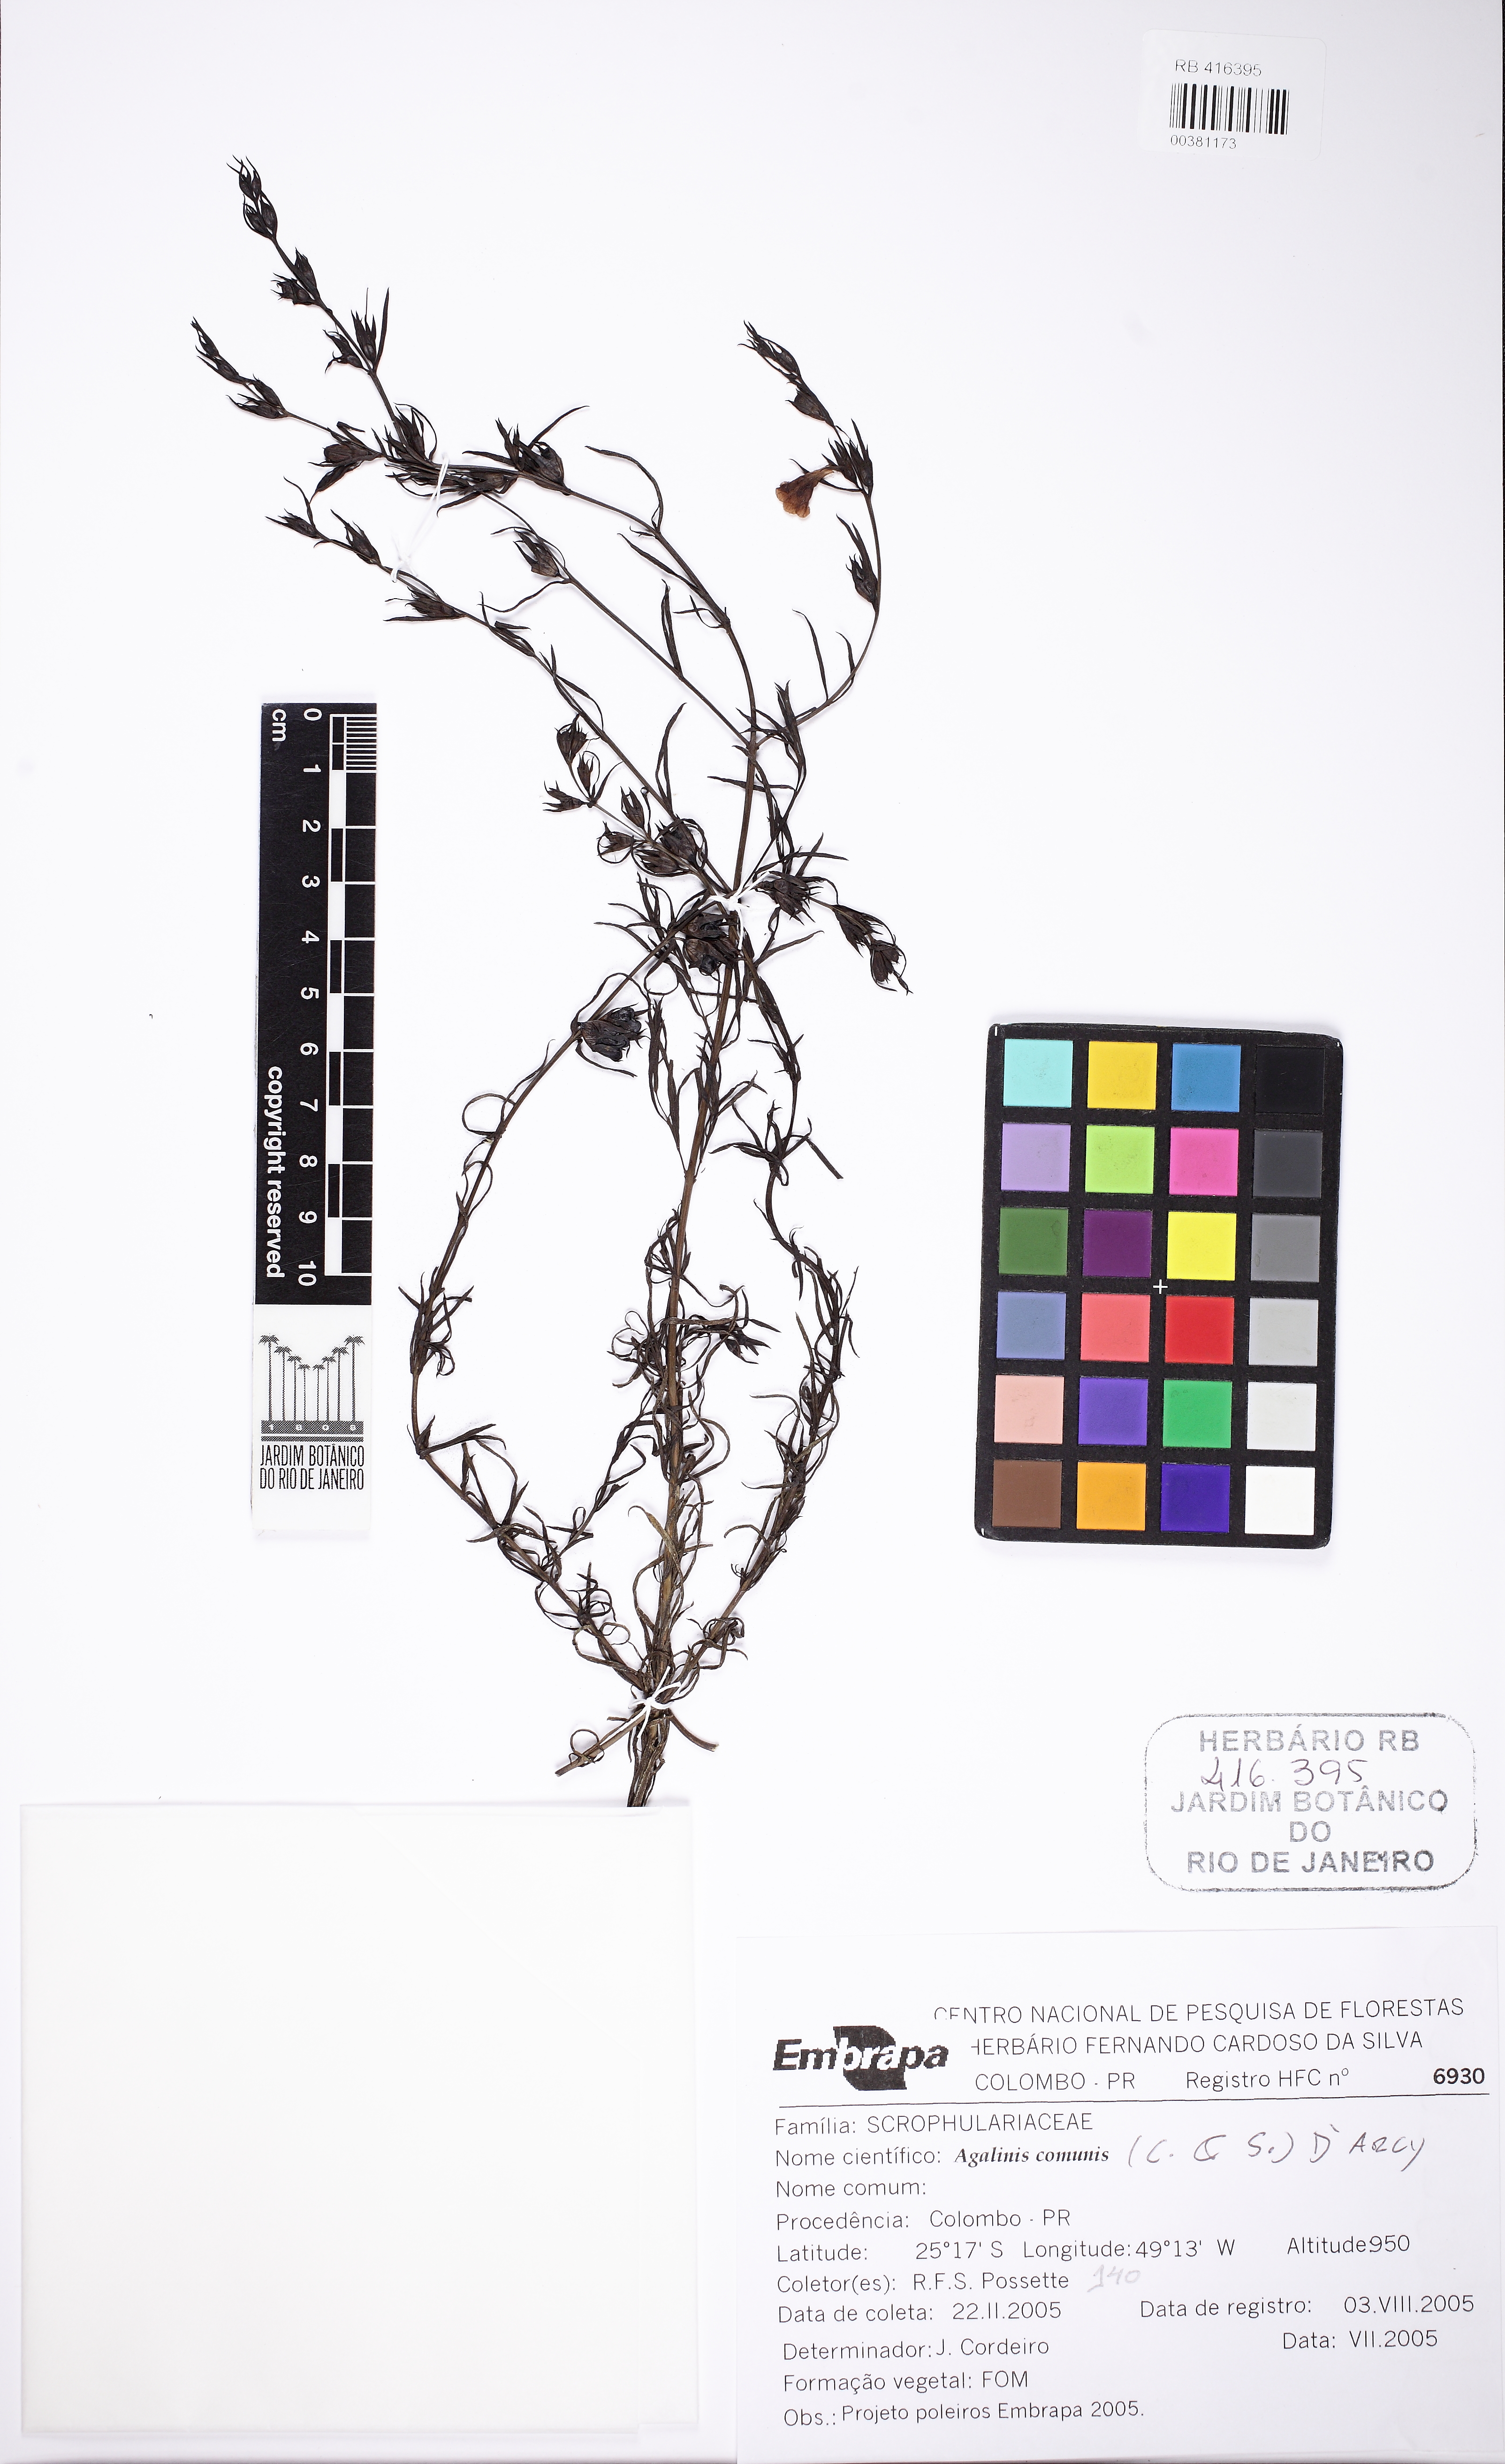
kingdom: Plantae
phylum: Tracheophyta
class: Magnoliopsida
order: Lamiales
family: Scrophulariaceae
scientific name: Scrophulariaceae
